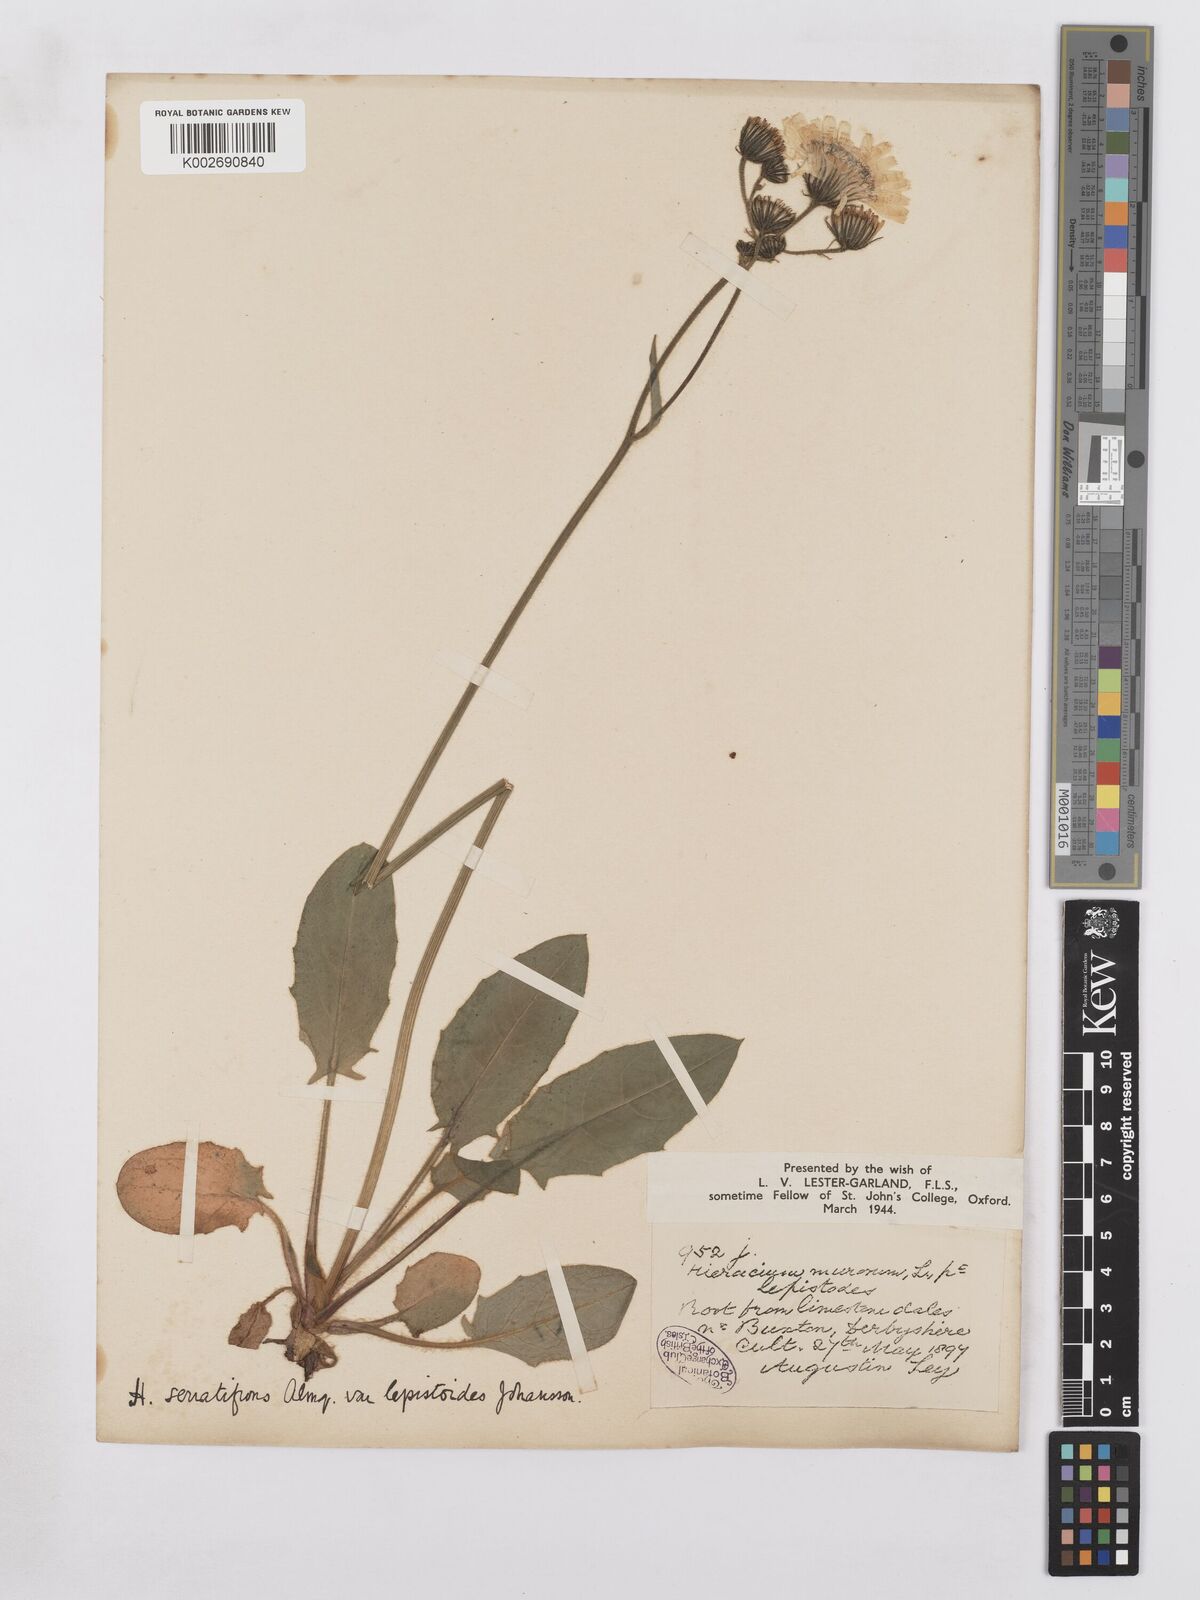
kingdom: Plantae
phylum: Tracheophyta
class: Magnoliopsida
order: Asterales
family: Asteraceae
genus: Hieracium
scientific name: Hieracium murorum
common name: Wall hawkweed
